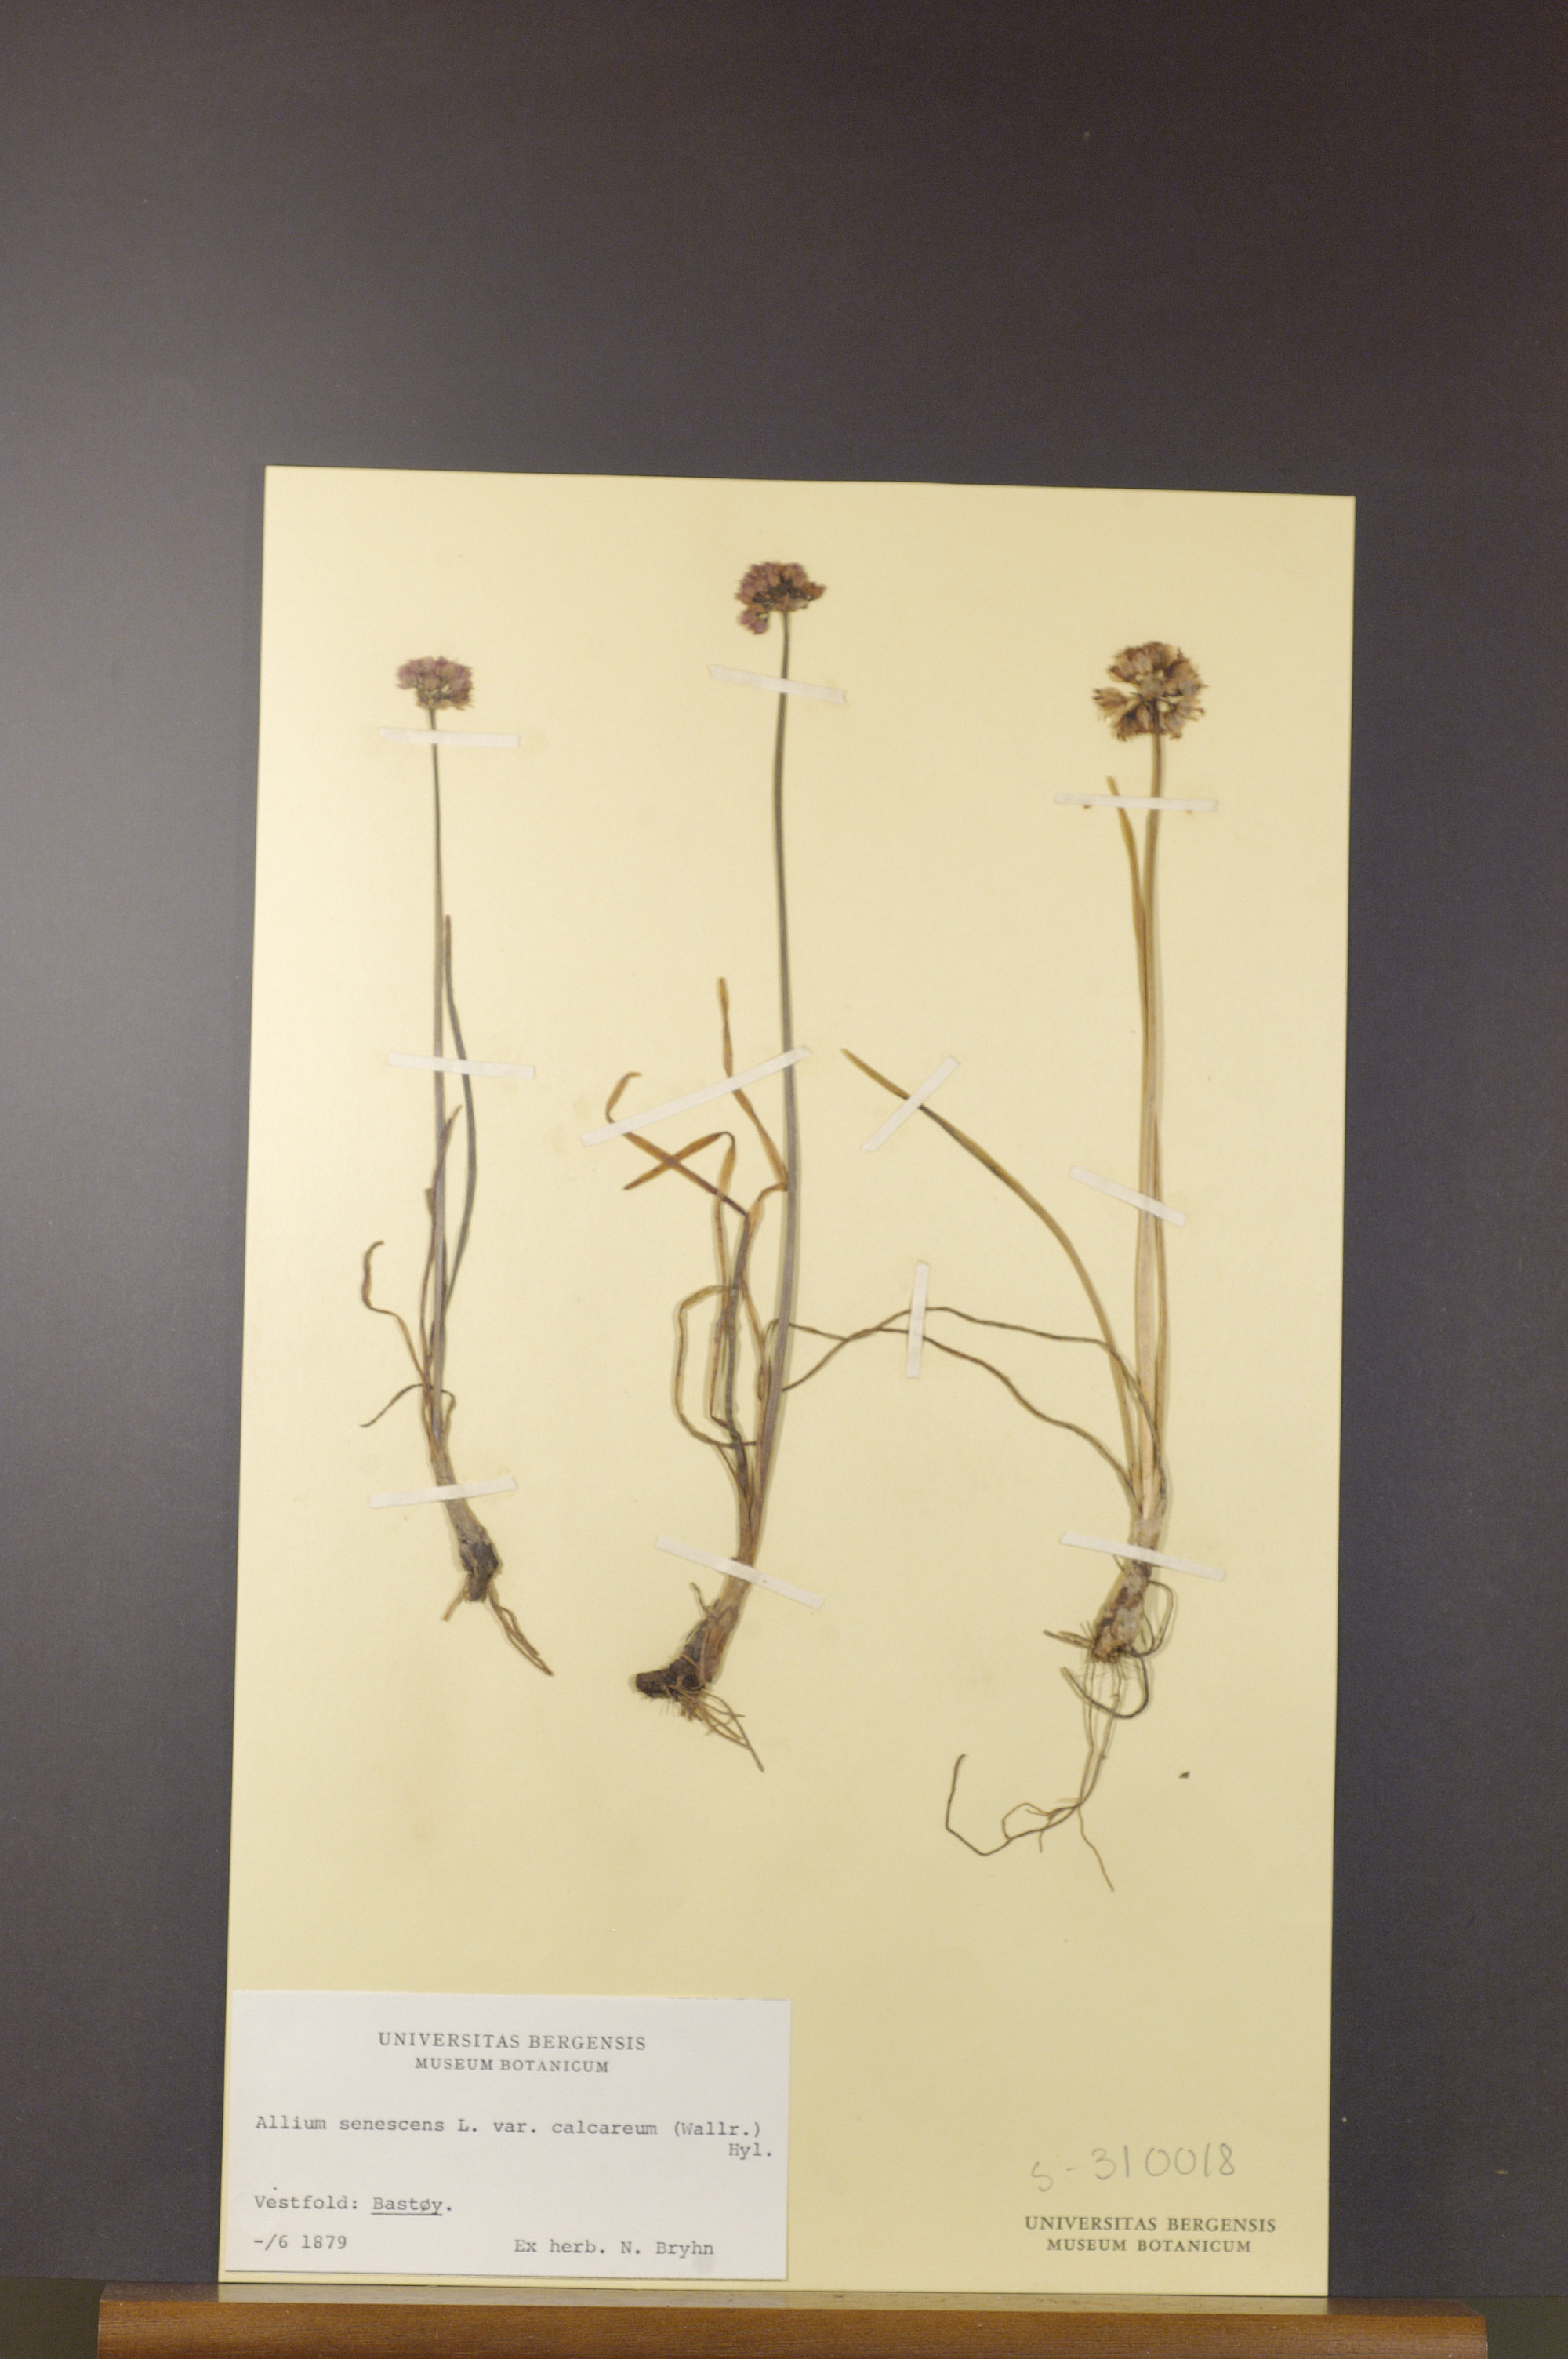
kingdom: Plantae
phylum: Tracheophyta
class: Liliopsida
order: Asparagales
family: Amaryllidaceae
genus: Allium
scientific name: Allium lusitanicum
